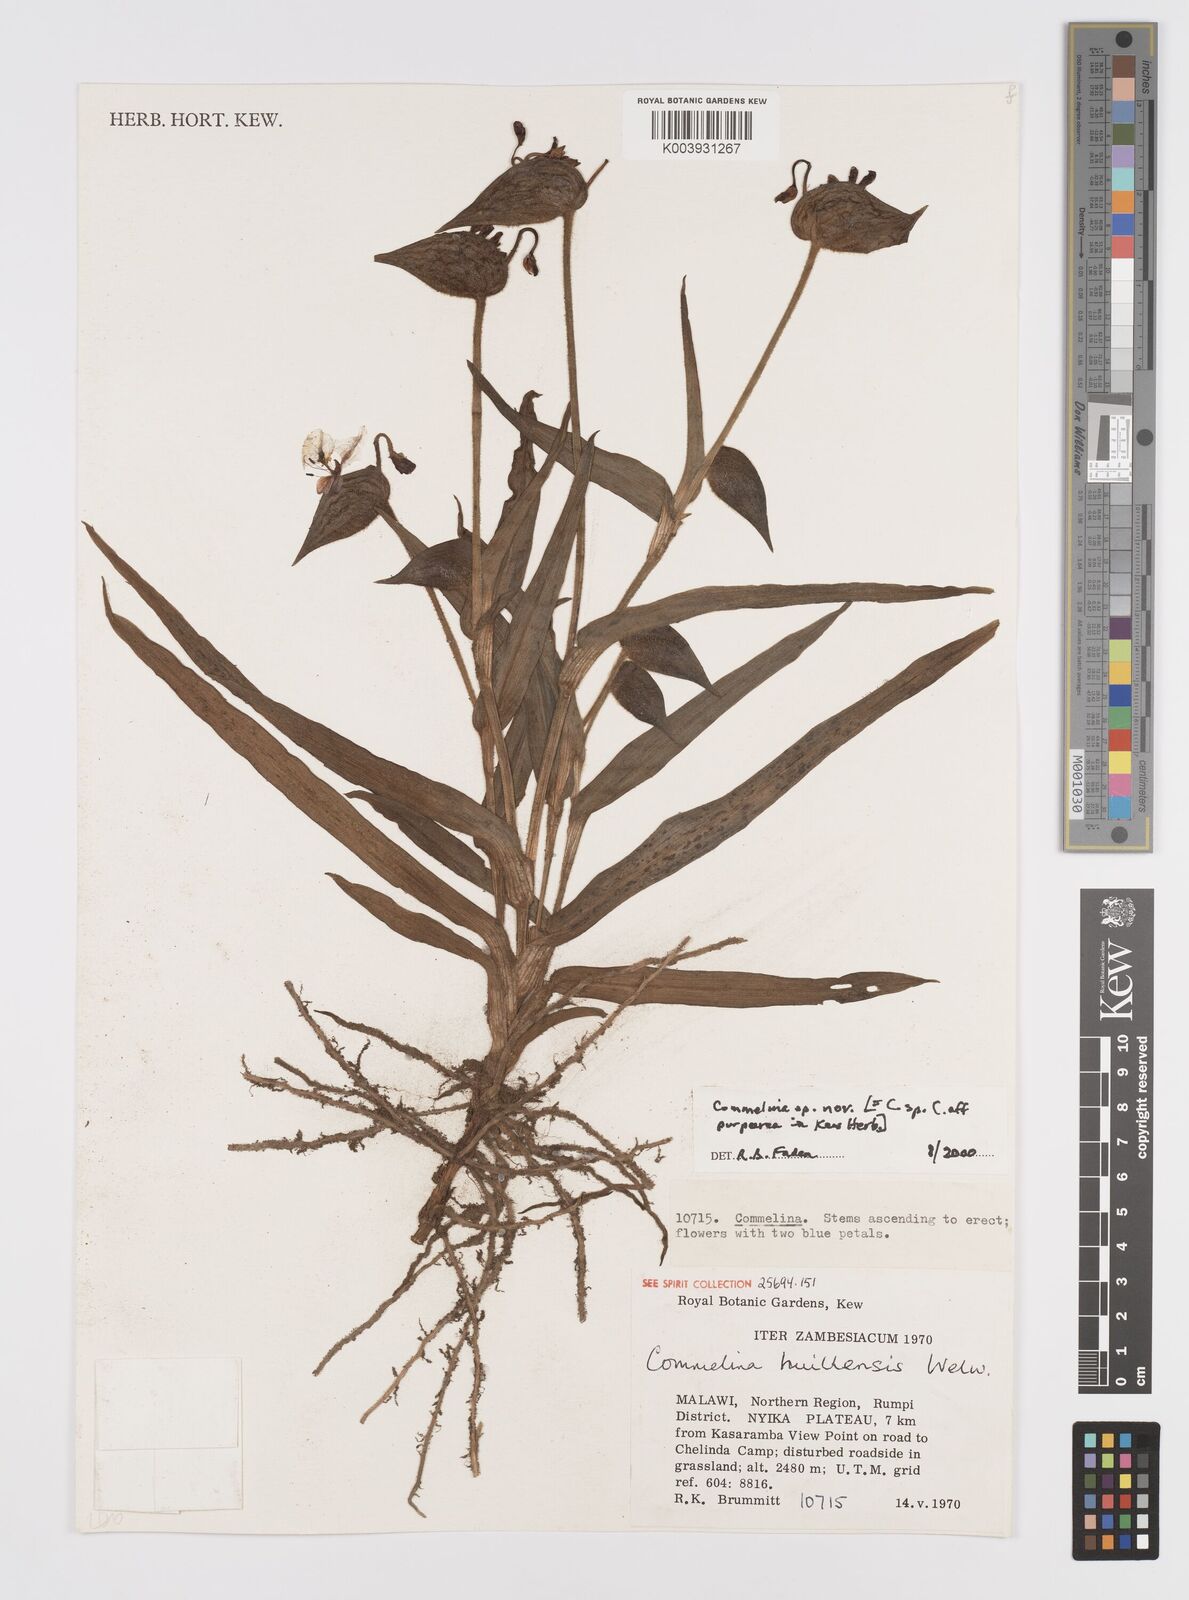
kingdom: Plantae
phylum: Tracheophyta
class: Liliopsida
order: Commelinales
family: Commelinaceae
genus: Commelina
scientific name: Commelina kituloensis
